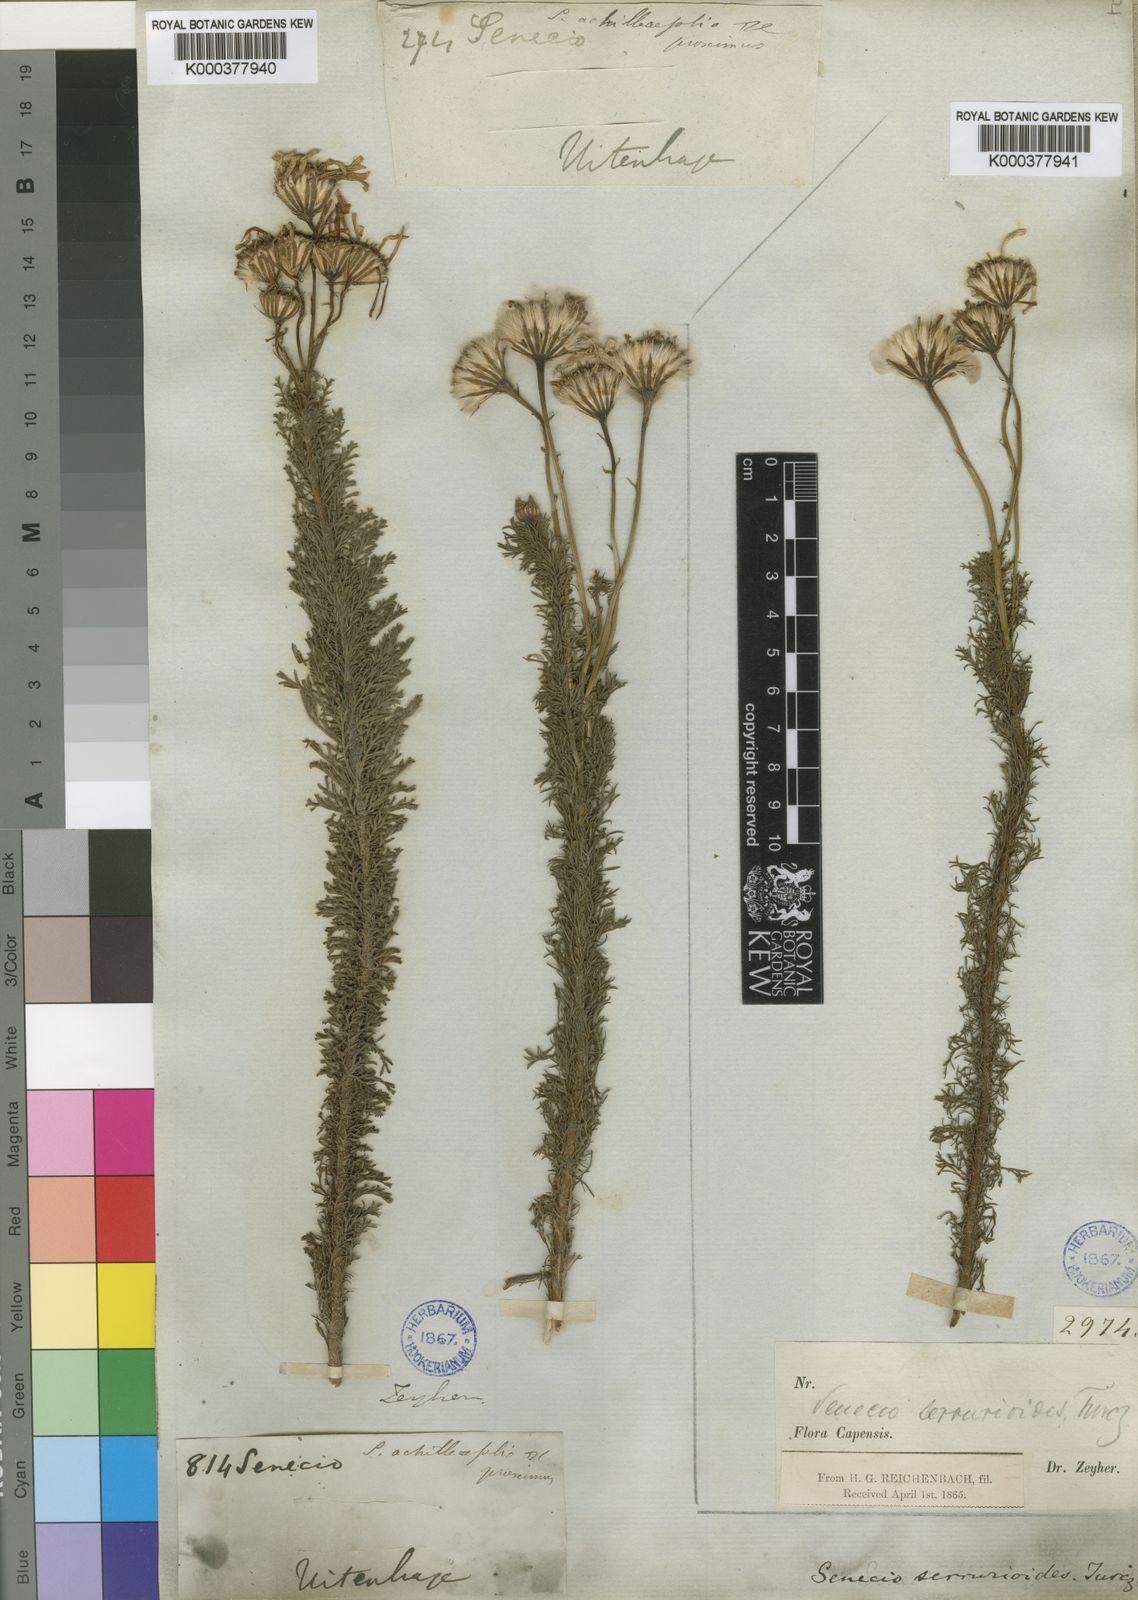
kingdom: Plantae
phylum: Tracheophyta
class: Magnoliopsida
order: Asterales
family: Asteraceae
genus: Senecio
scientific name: Senecio serrurioides
